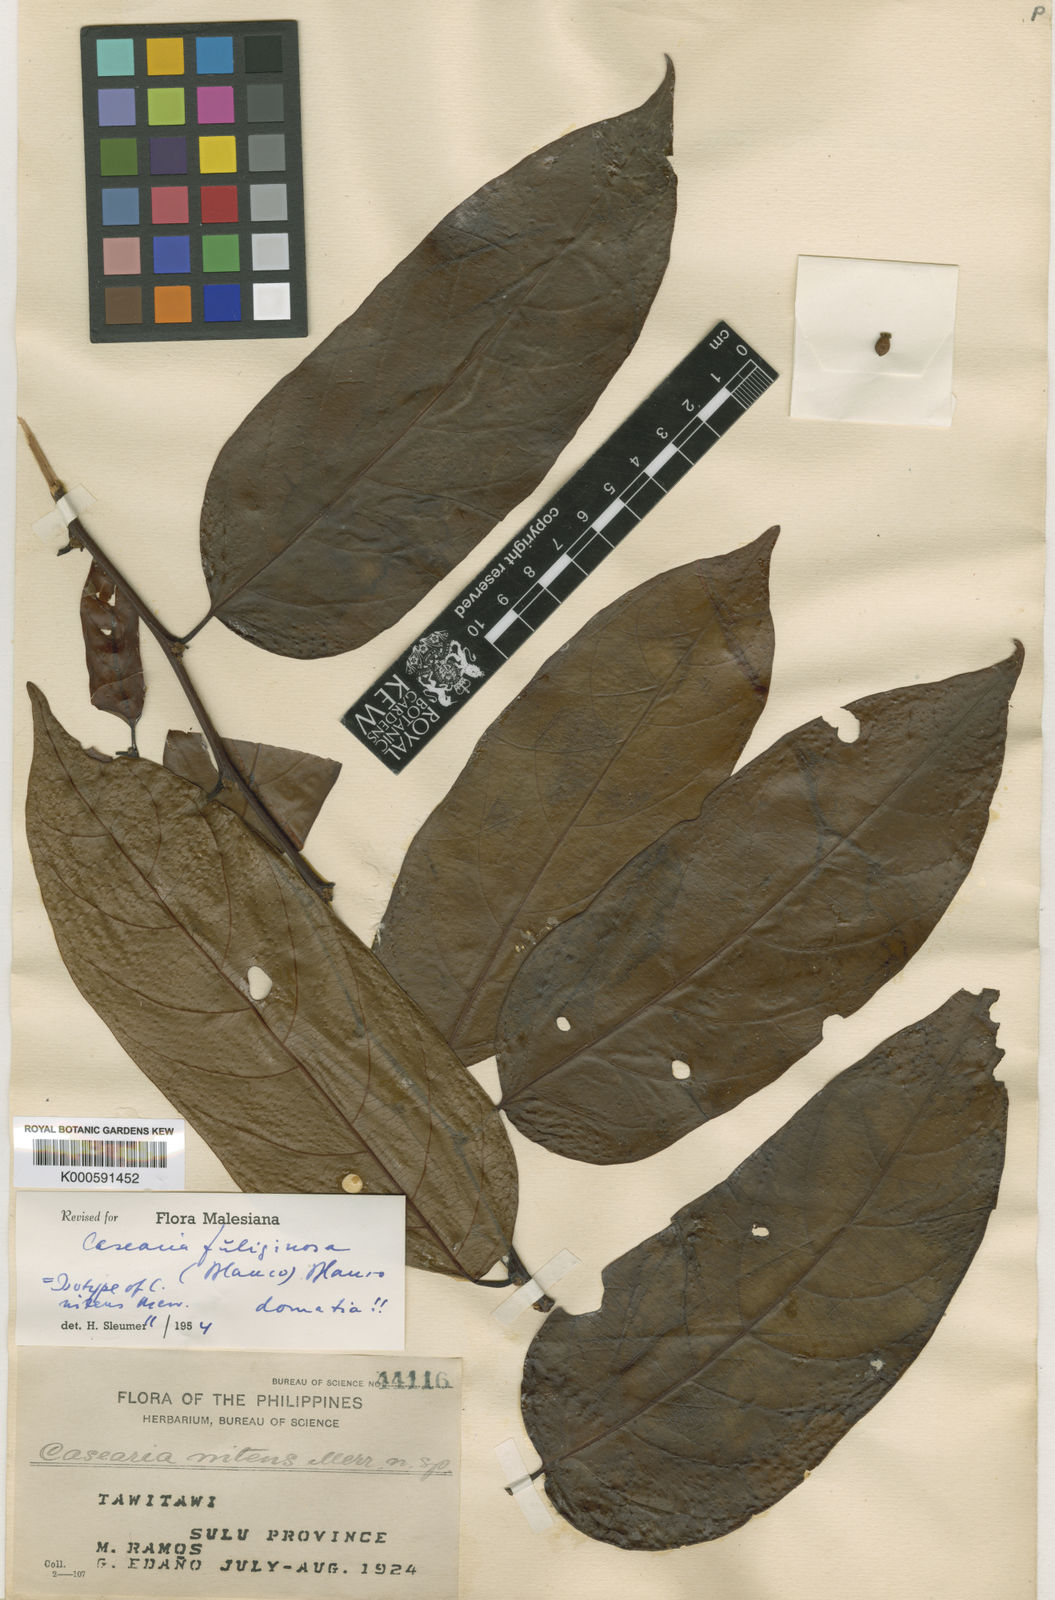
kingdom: Plantae
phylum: Tracheophyta
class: Magnoliopsida
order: Malpighiales
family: Salicaceae
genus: Casearia
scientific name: Casearia fuliginosa
